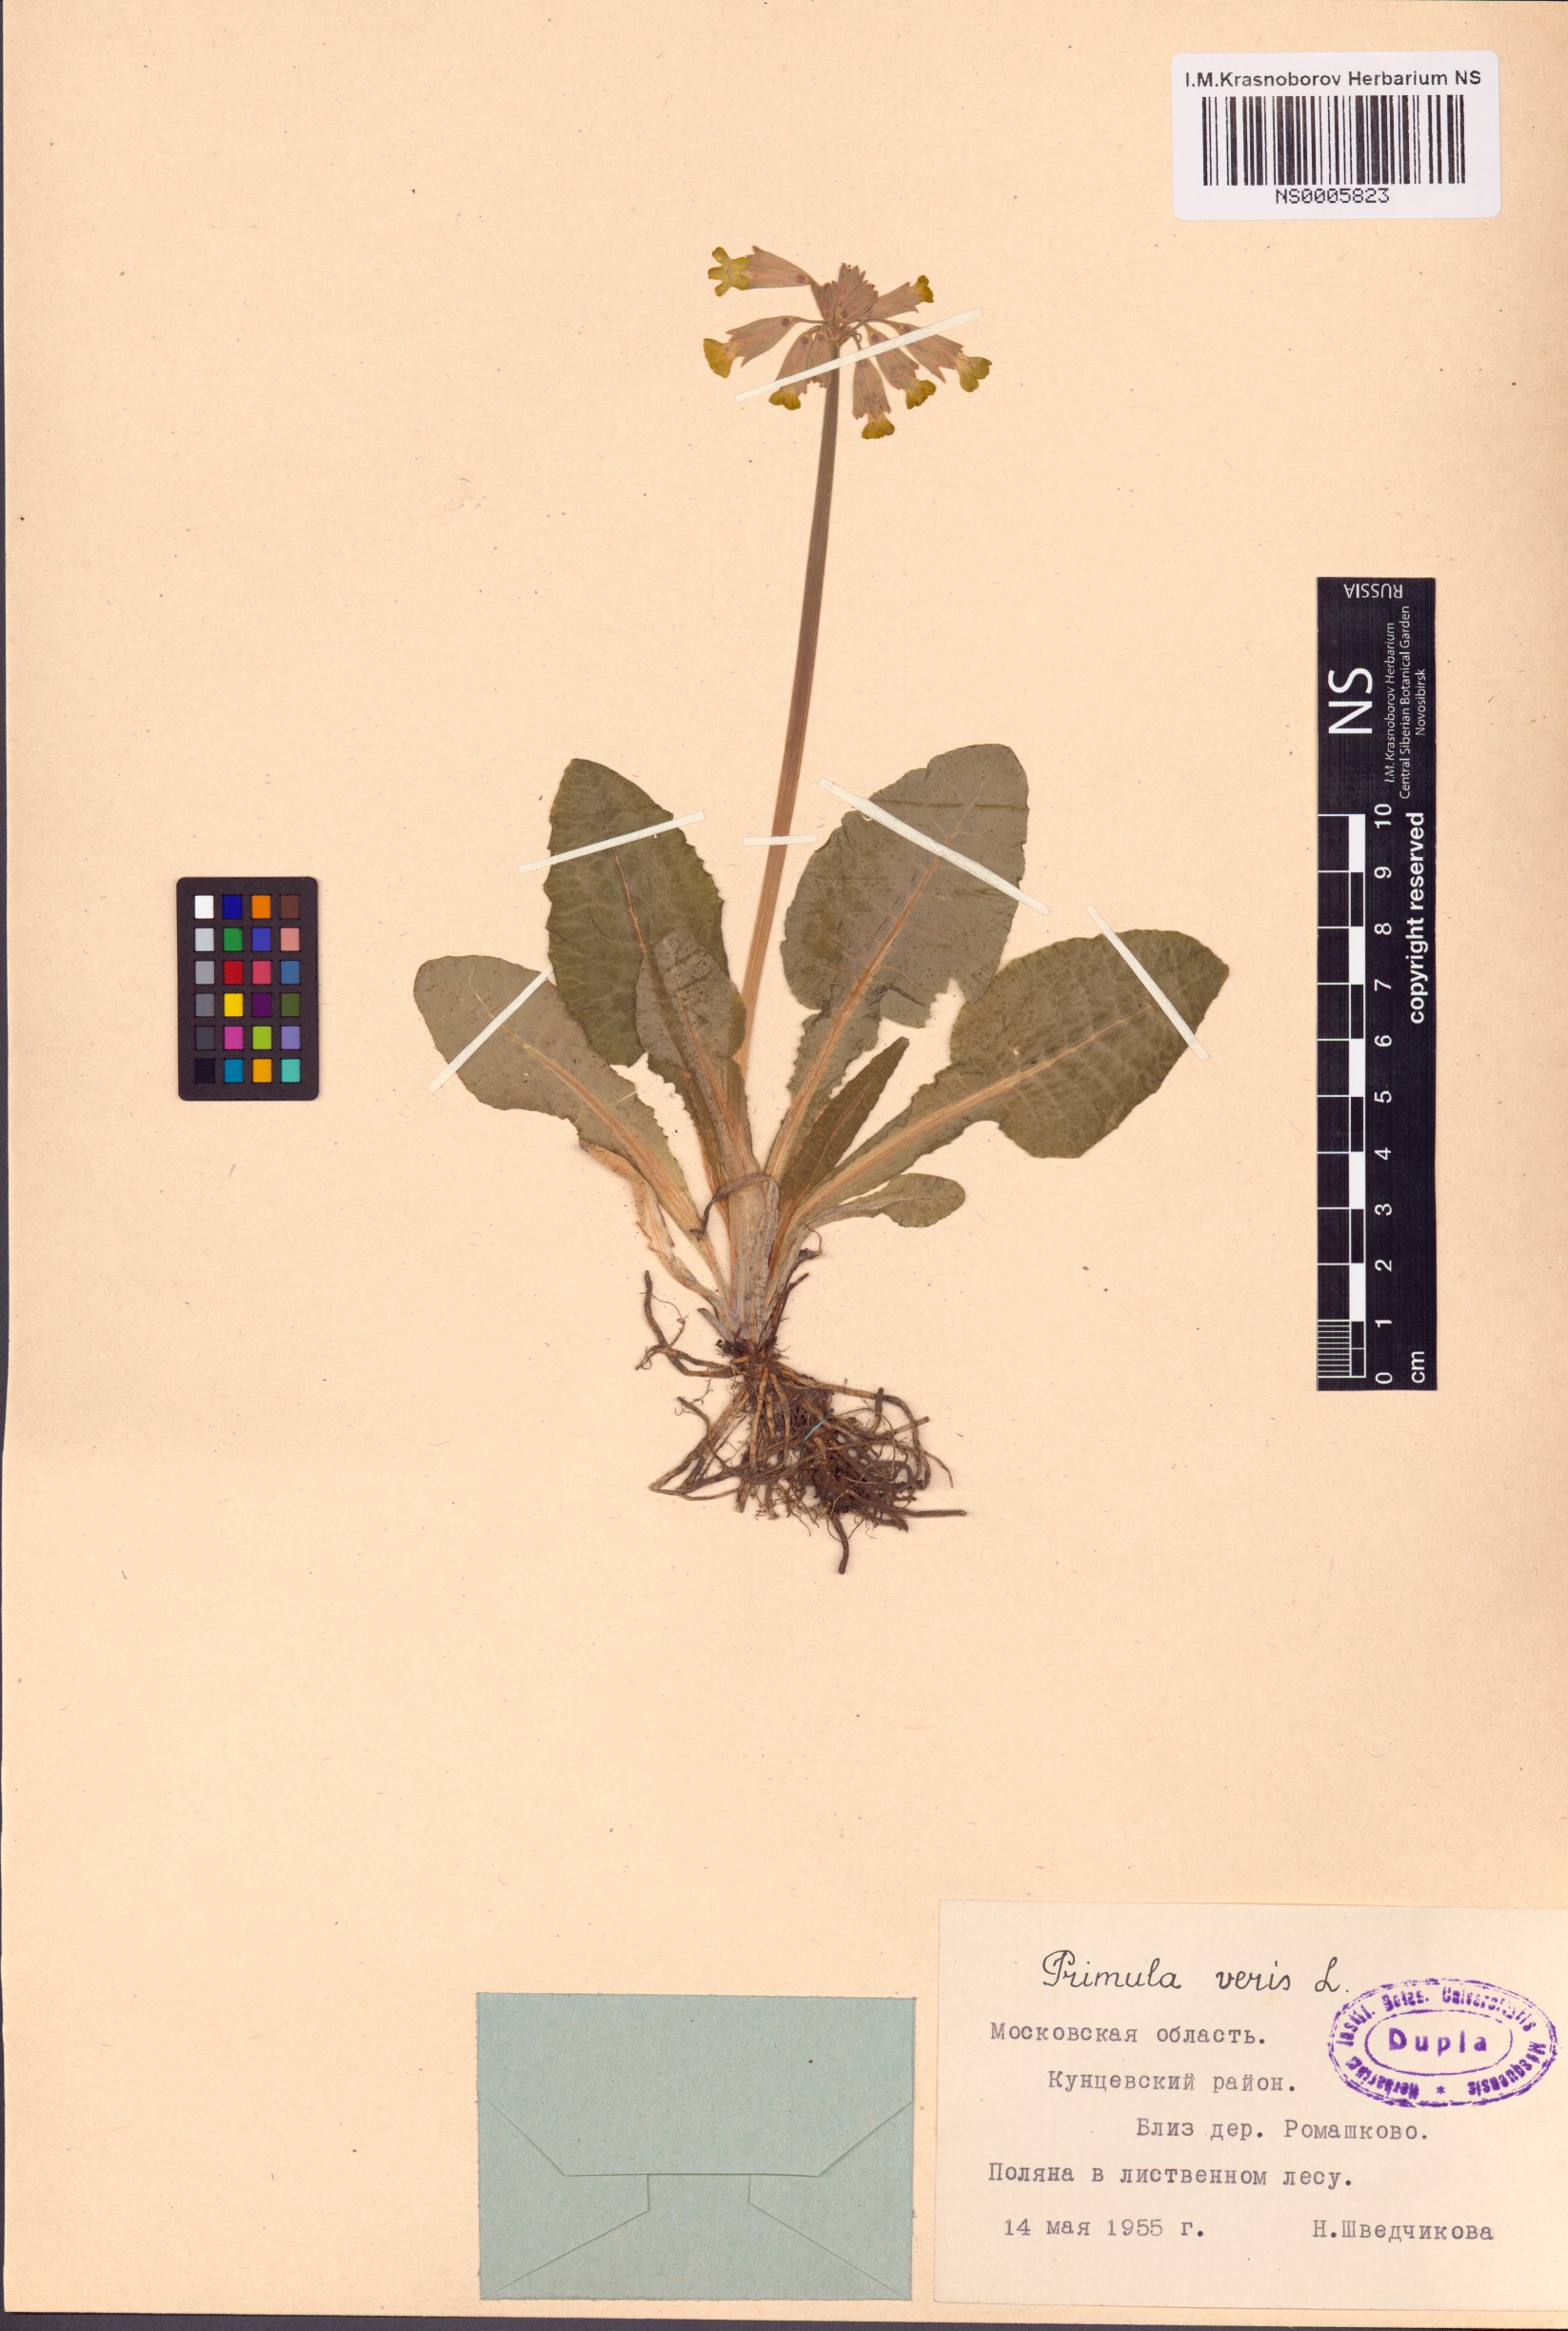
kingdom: Plantae
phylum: Tracheophyta
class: Magnoliopsida
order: Ericales
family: Primulaceae
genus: Primula
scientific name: Primula veris
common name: Cowslip
